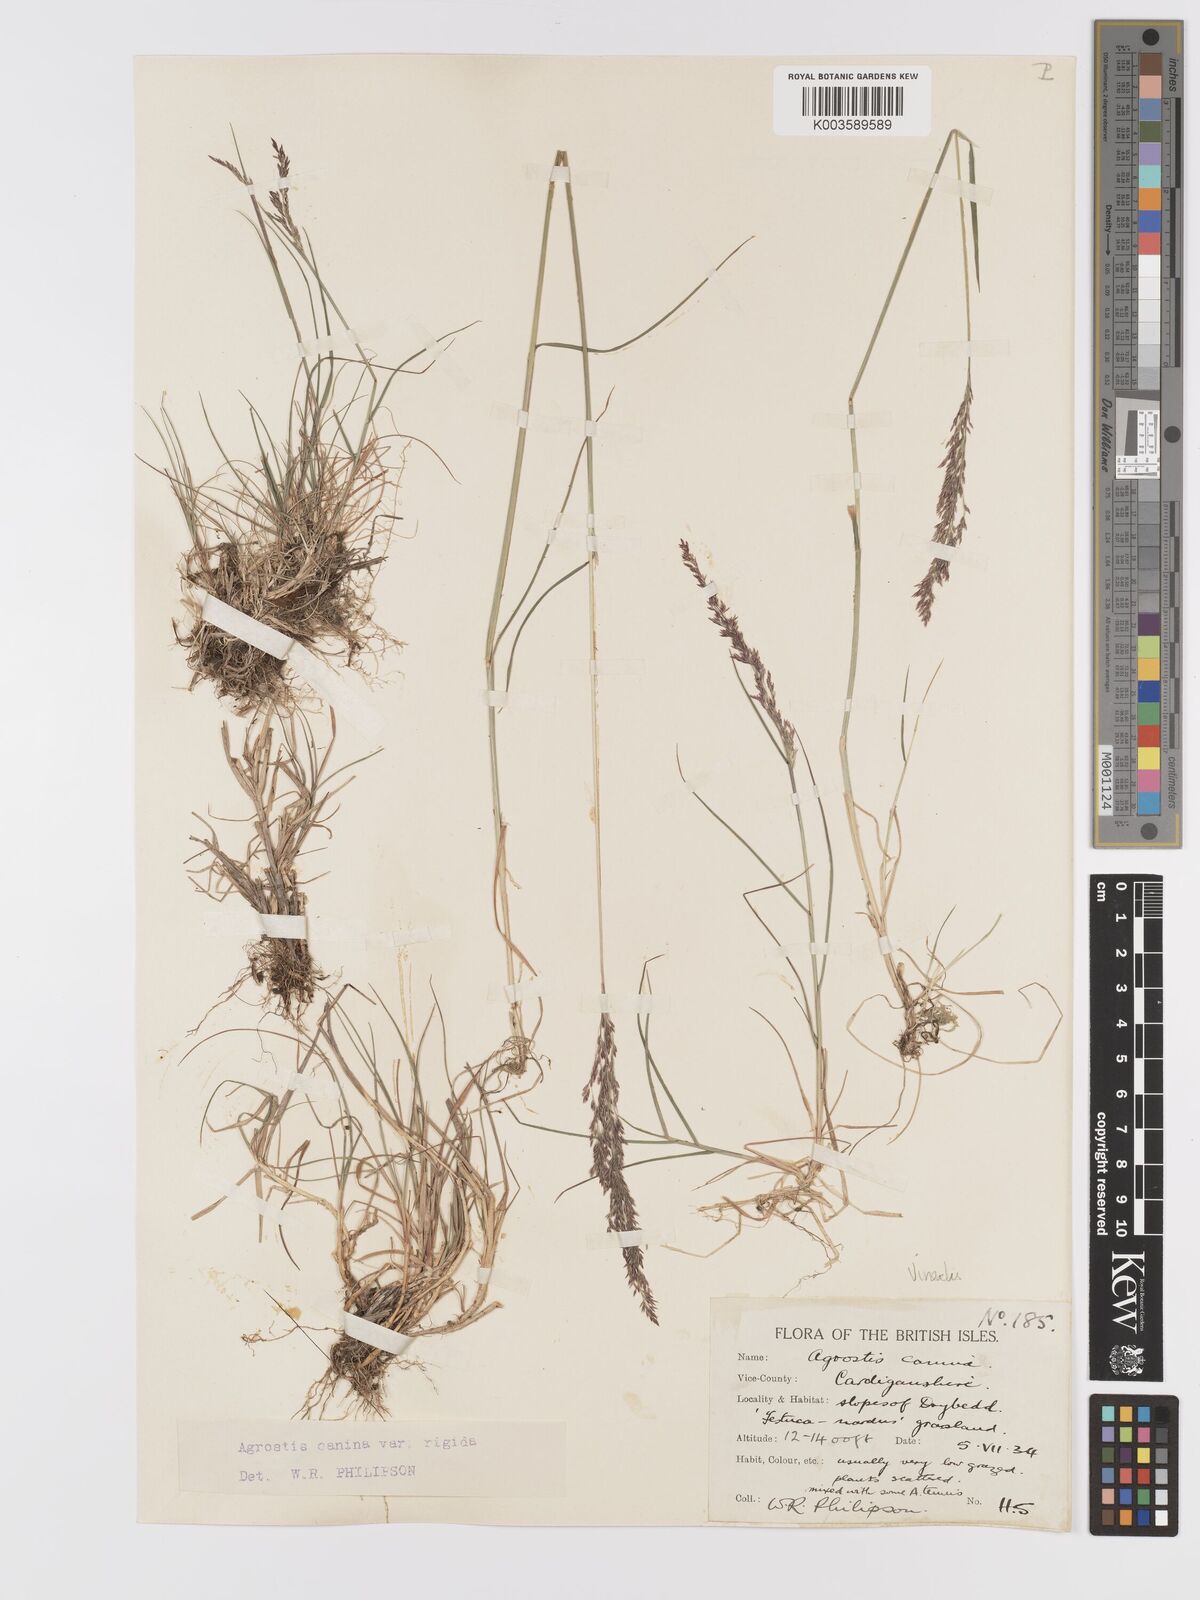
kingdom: Plantae
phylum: Tracheophyta
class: Liliopsida
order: Poales
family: Poaceae
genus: Agrostis
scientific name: Agrostis
